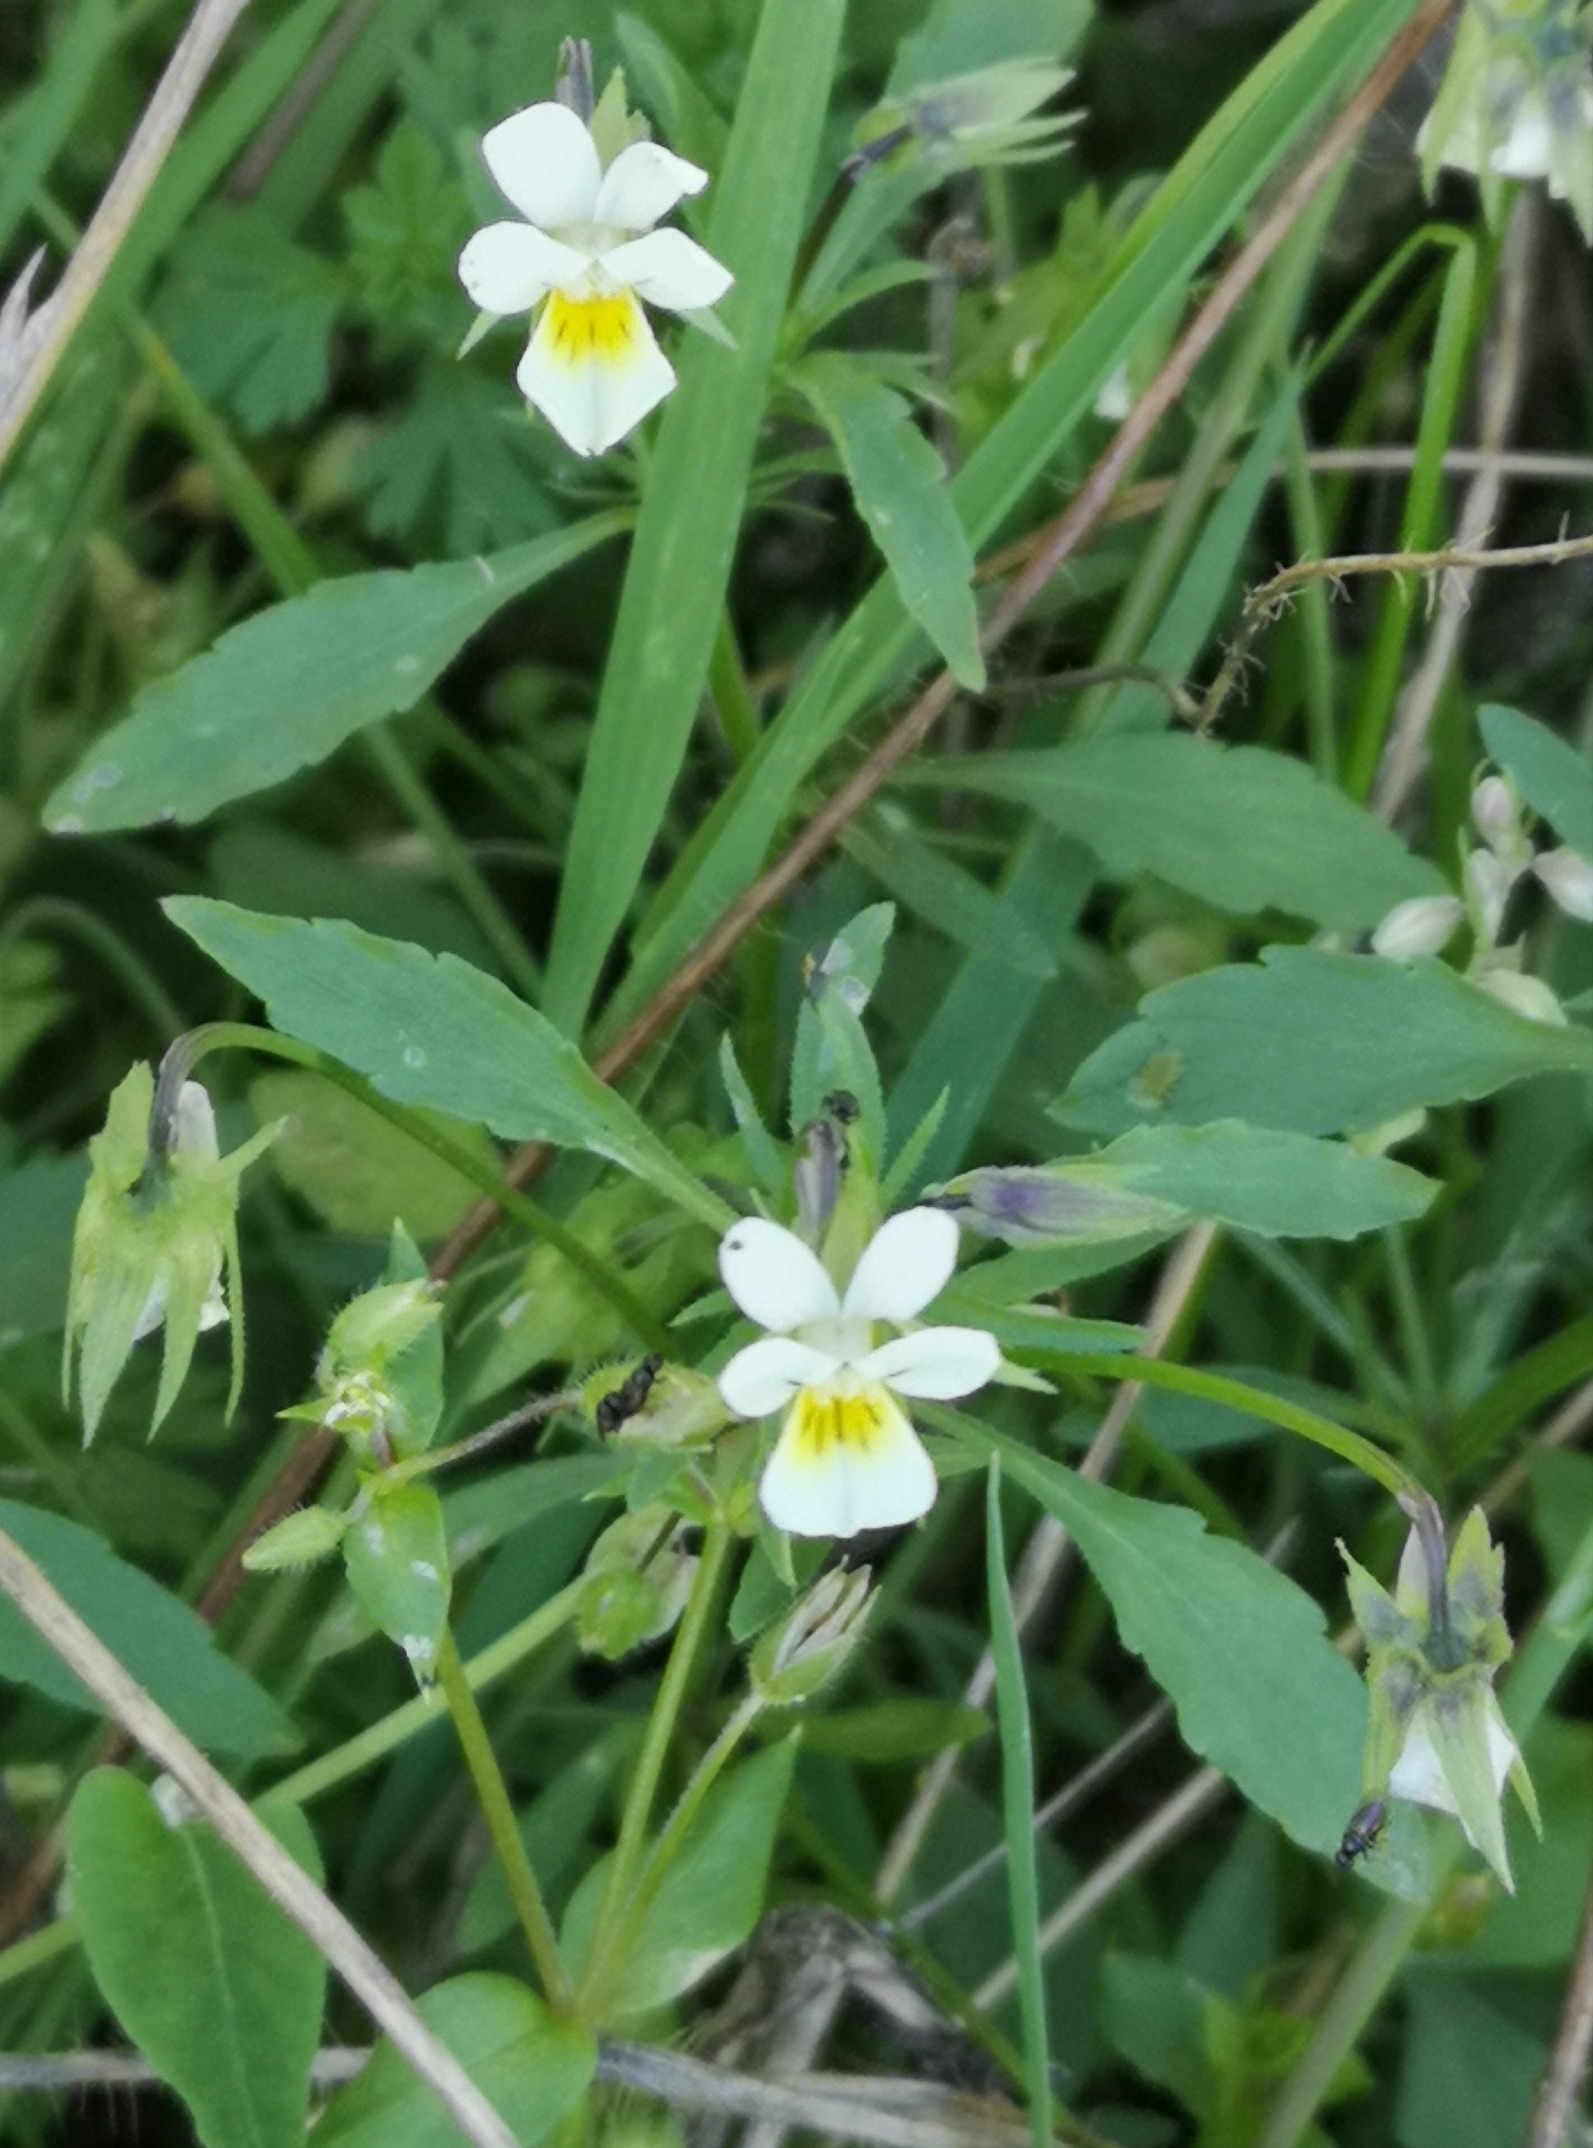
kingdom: Plantae
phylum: Tracheophyta
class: Magnoliopsida
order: Malpighiales
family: Violaceae
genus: Viola
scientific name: Viola arvensis
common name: Ager-stedmoderblomst
